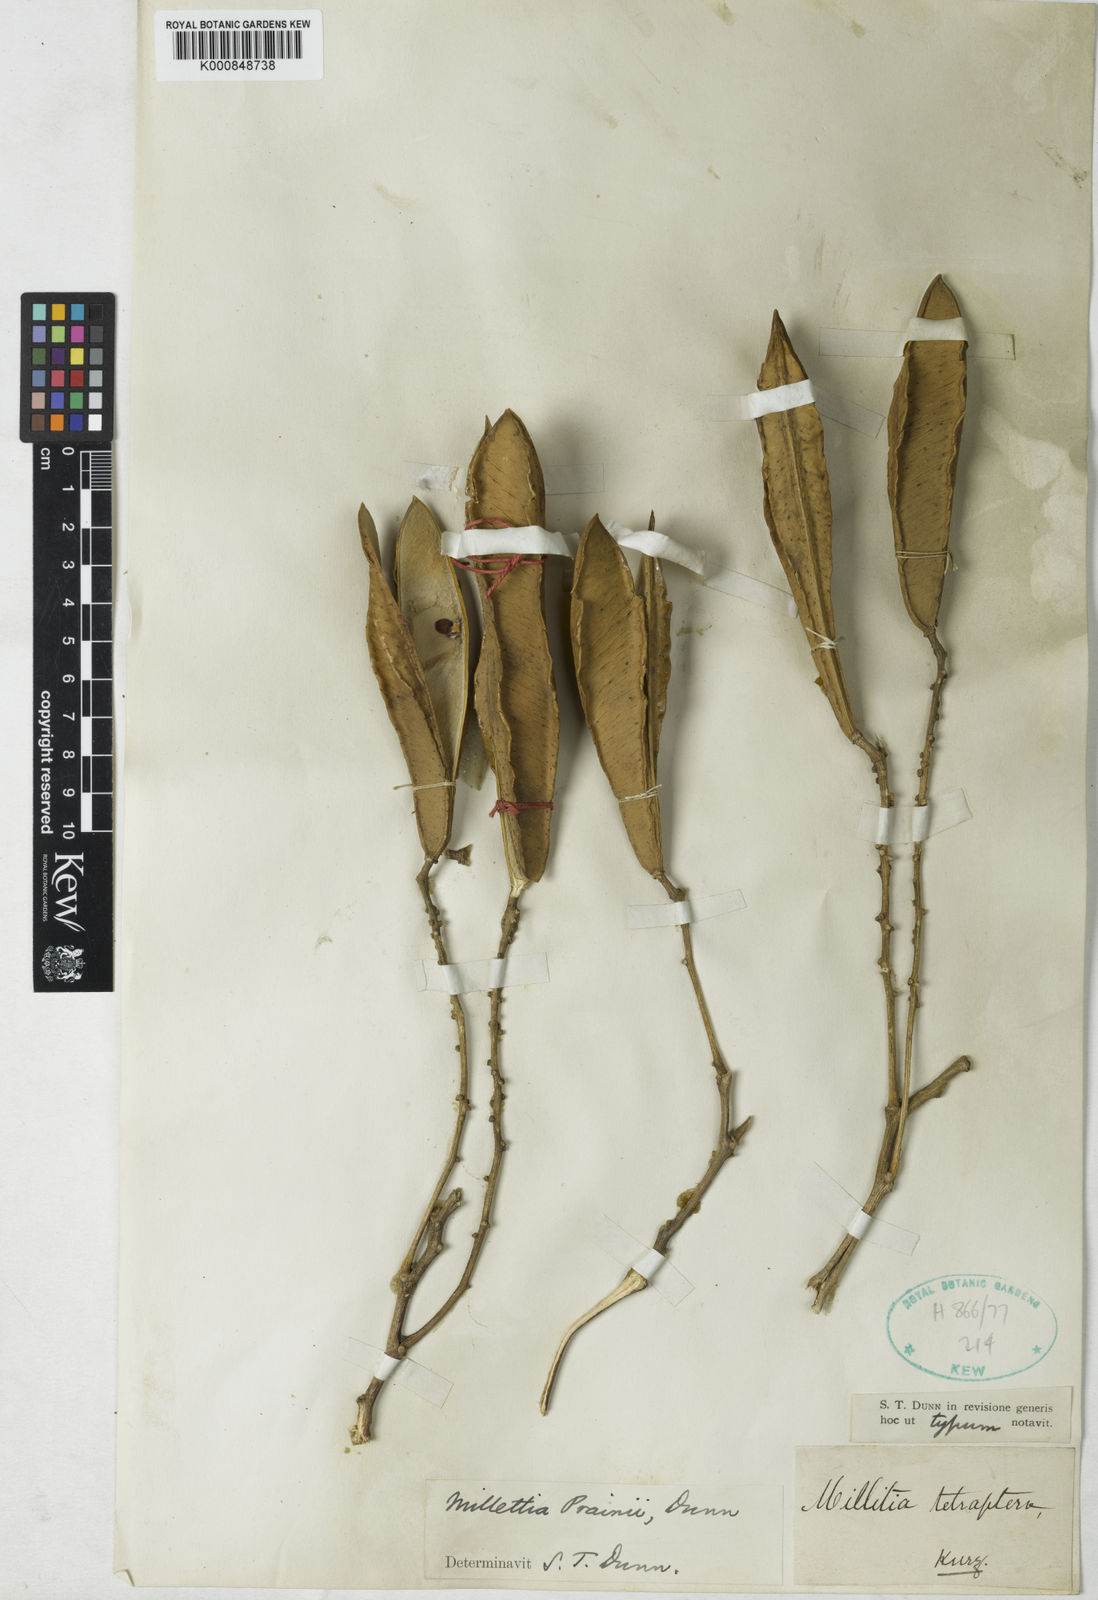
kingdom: Plantae
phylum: Tracheophyta
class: Magnoliopsida
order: Fabales
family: Fabaceae
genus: Millettia
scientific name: Millettia glaucescens
